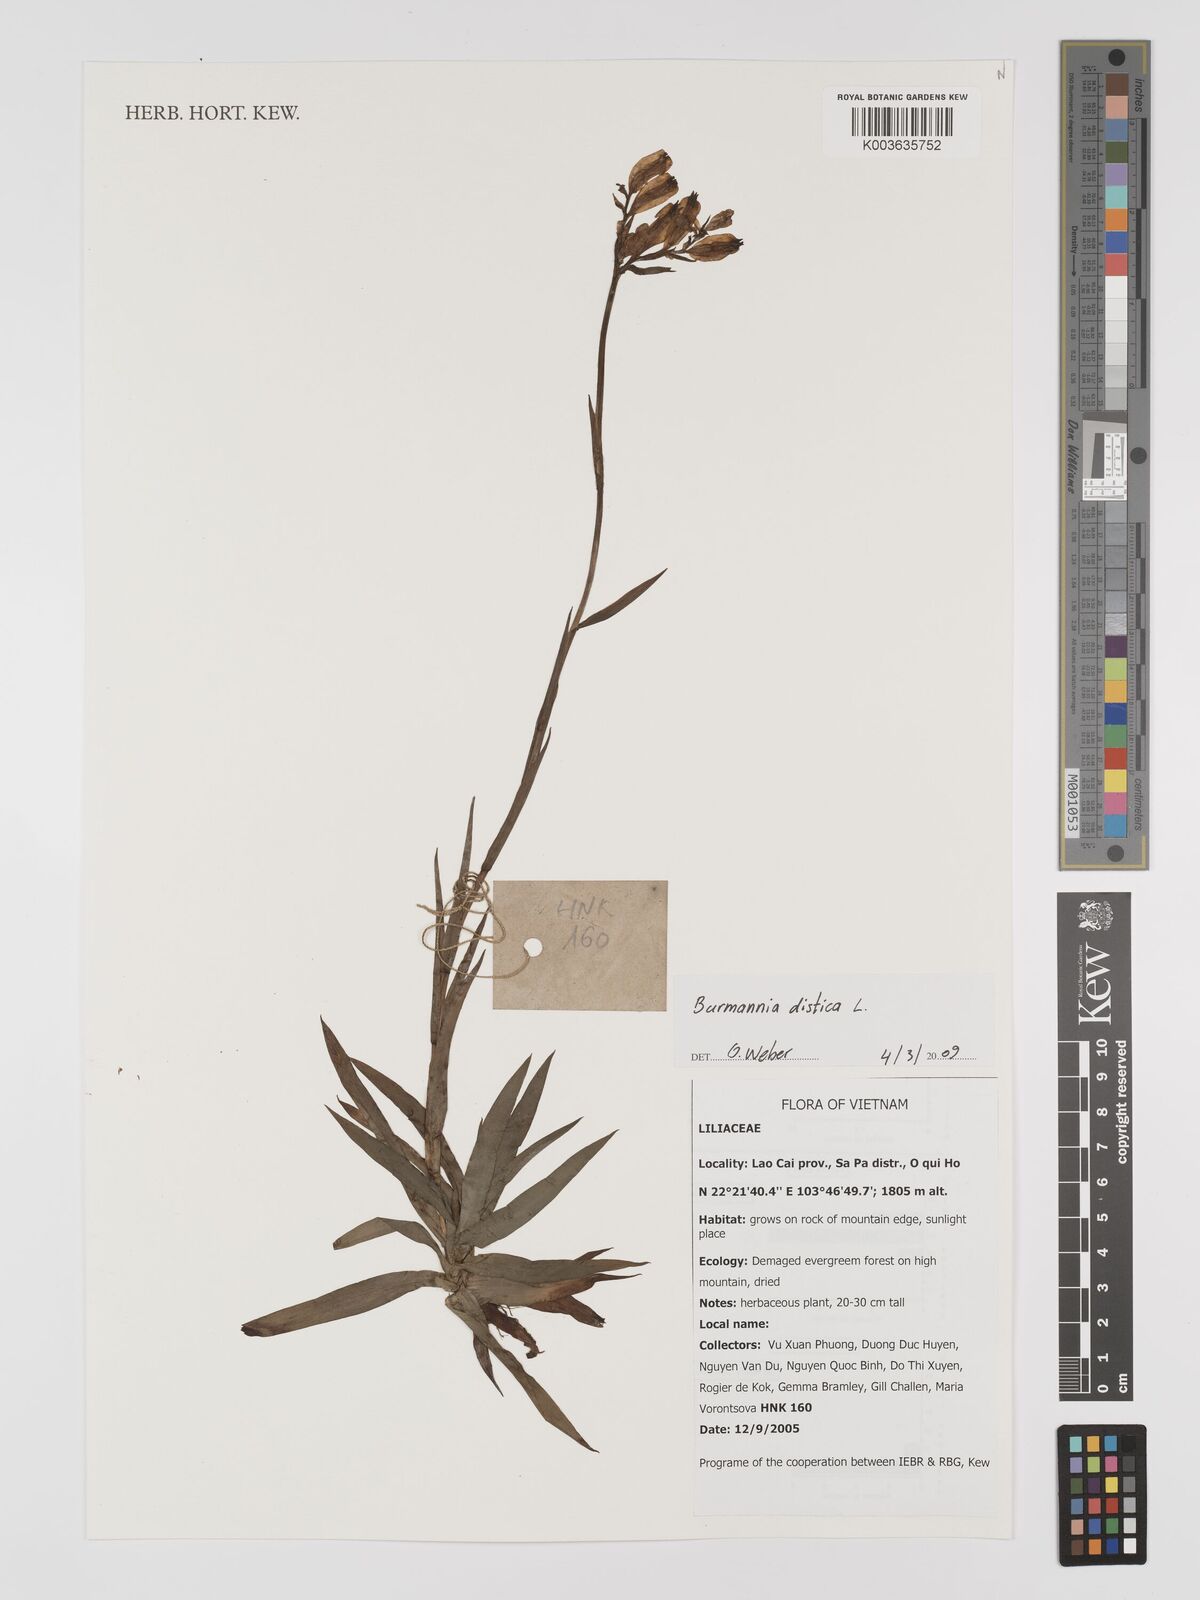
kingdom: Plantae
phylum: Tracheophyta
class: Liliopsida
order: Dioscoreales
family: Burmanniaceae
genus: Burmannia
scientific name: Burmannia disticha
